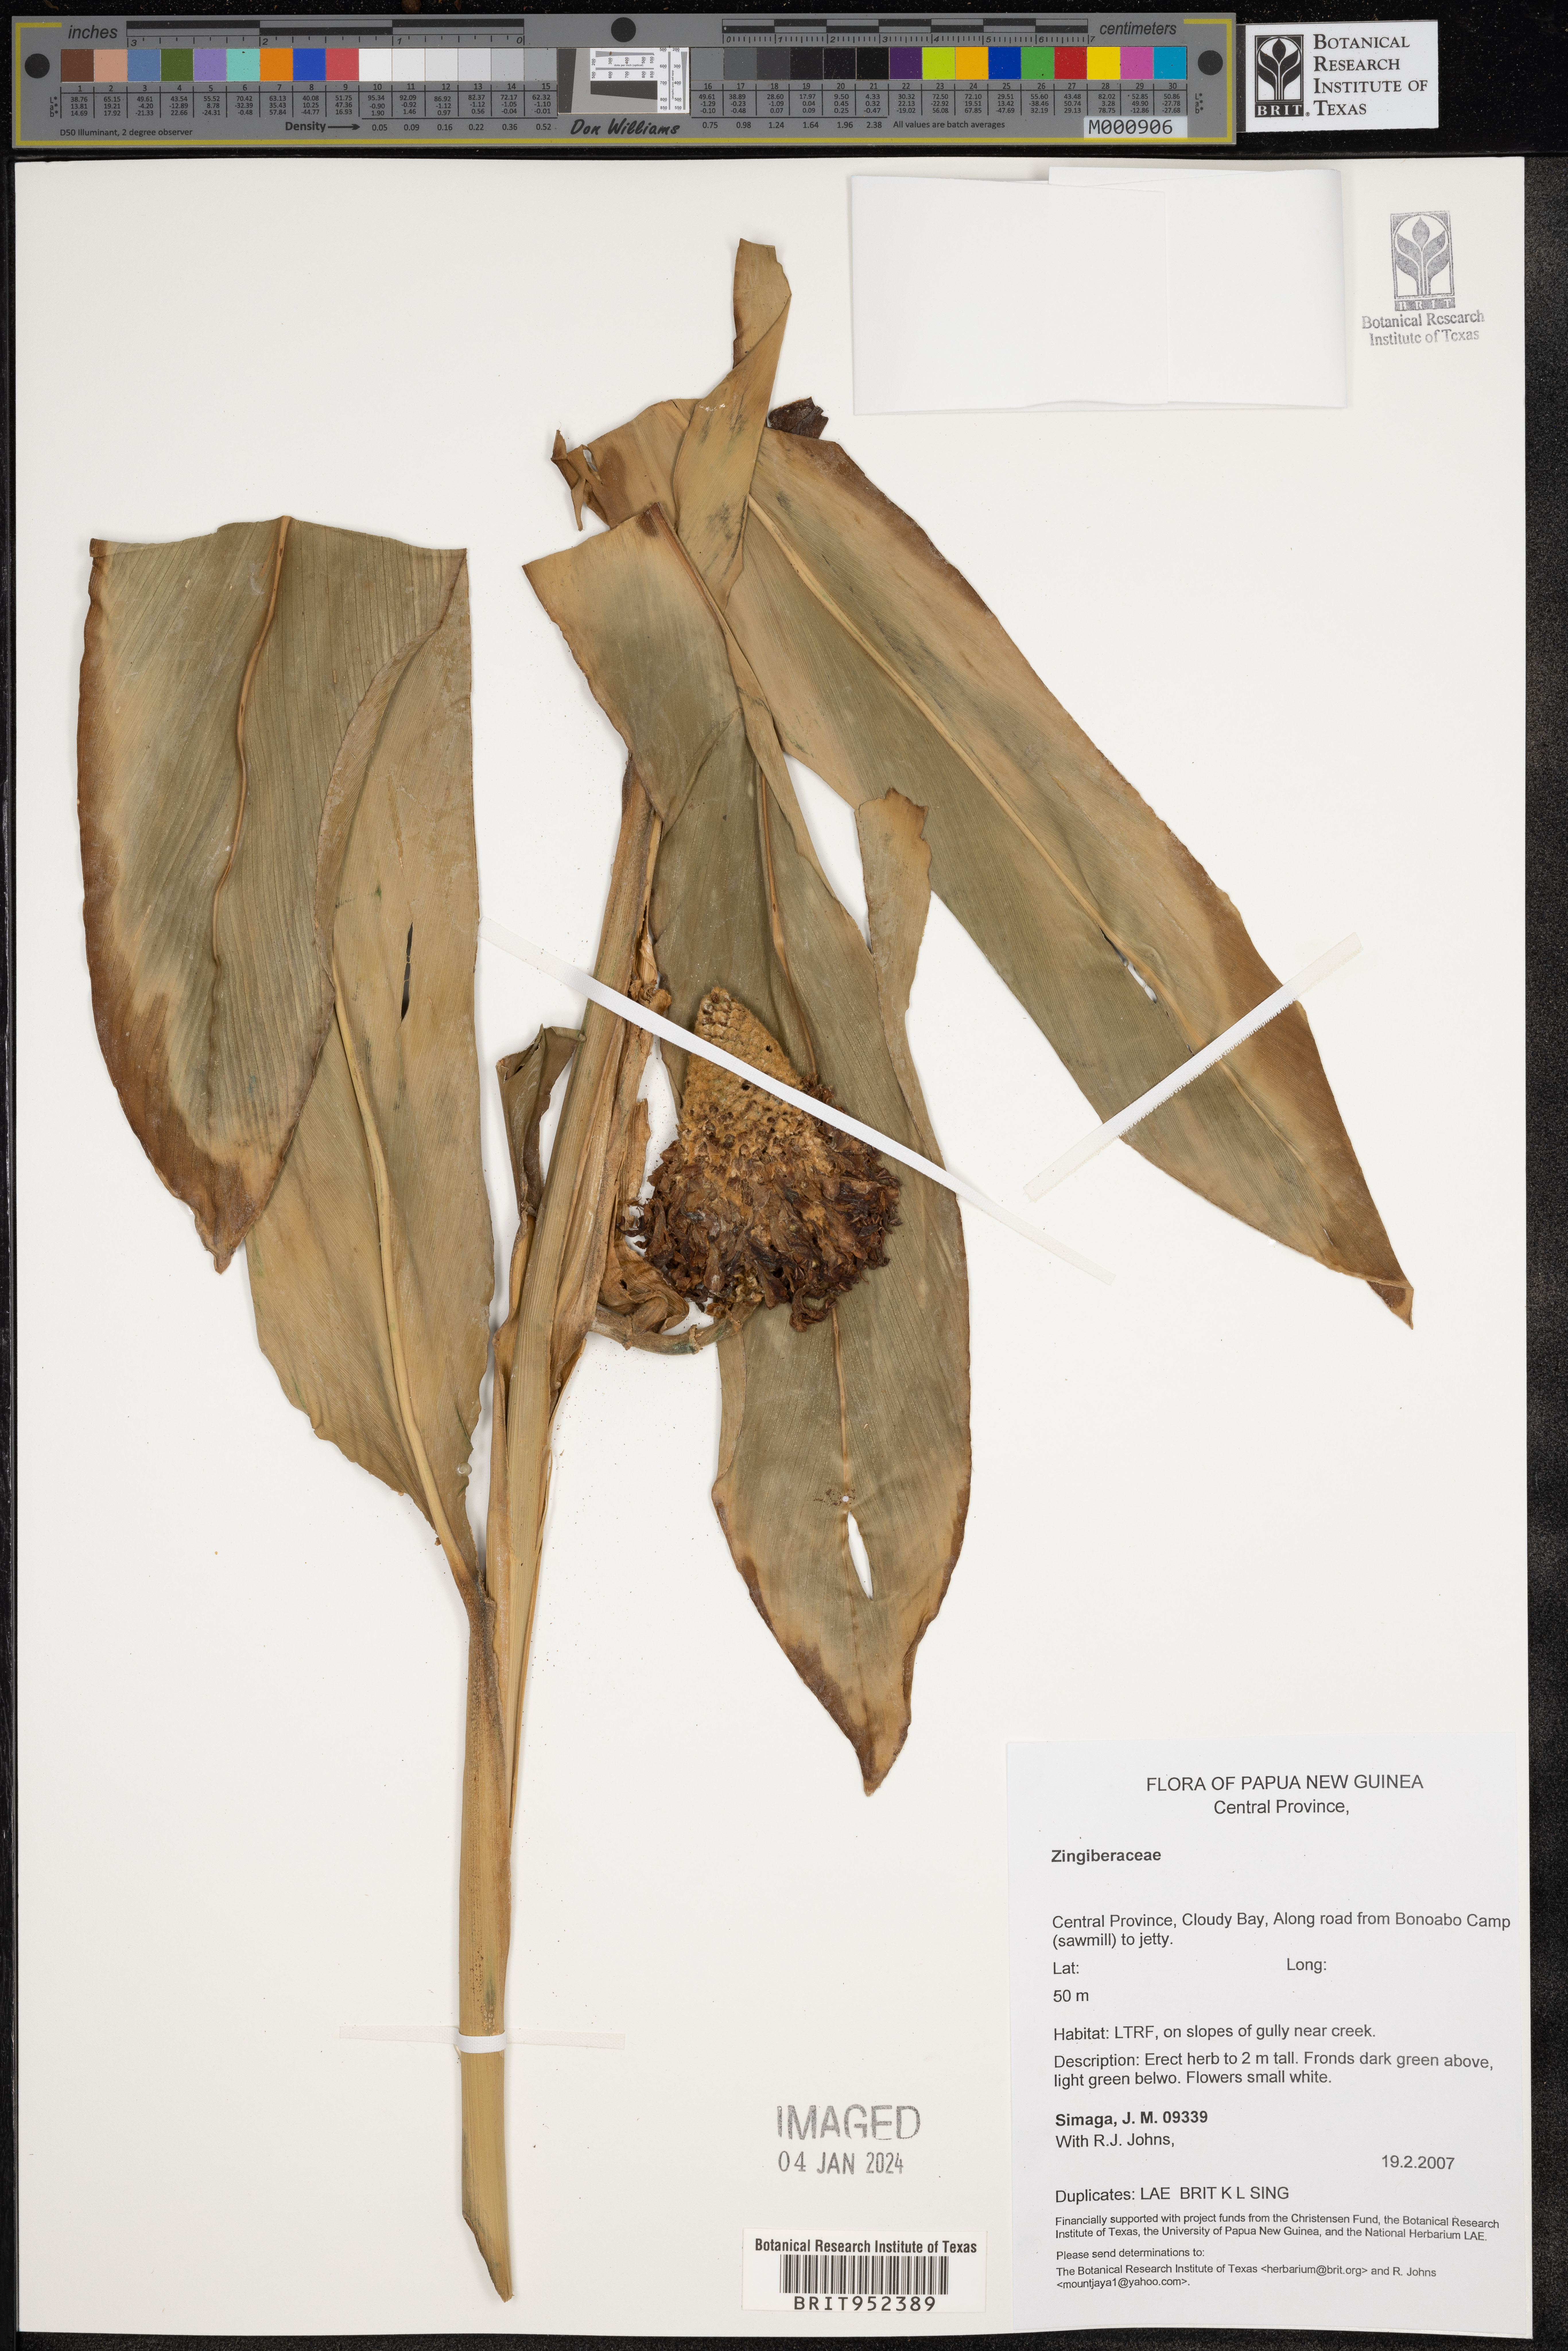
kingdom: Plantae
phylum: Tracheophyta
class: Liliopsida
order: Zingiberales
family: Zingiberaceae
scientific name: Zingiberaceae
